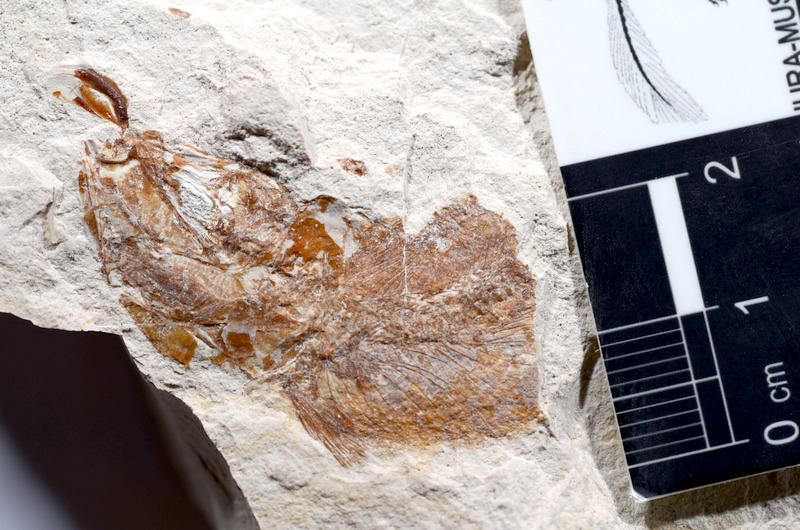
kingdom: Animalia
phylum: Chordata
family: Ascalaboidae
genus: Tharsis
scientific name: Tharsis dubius
